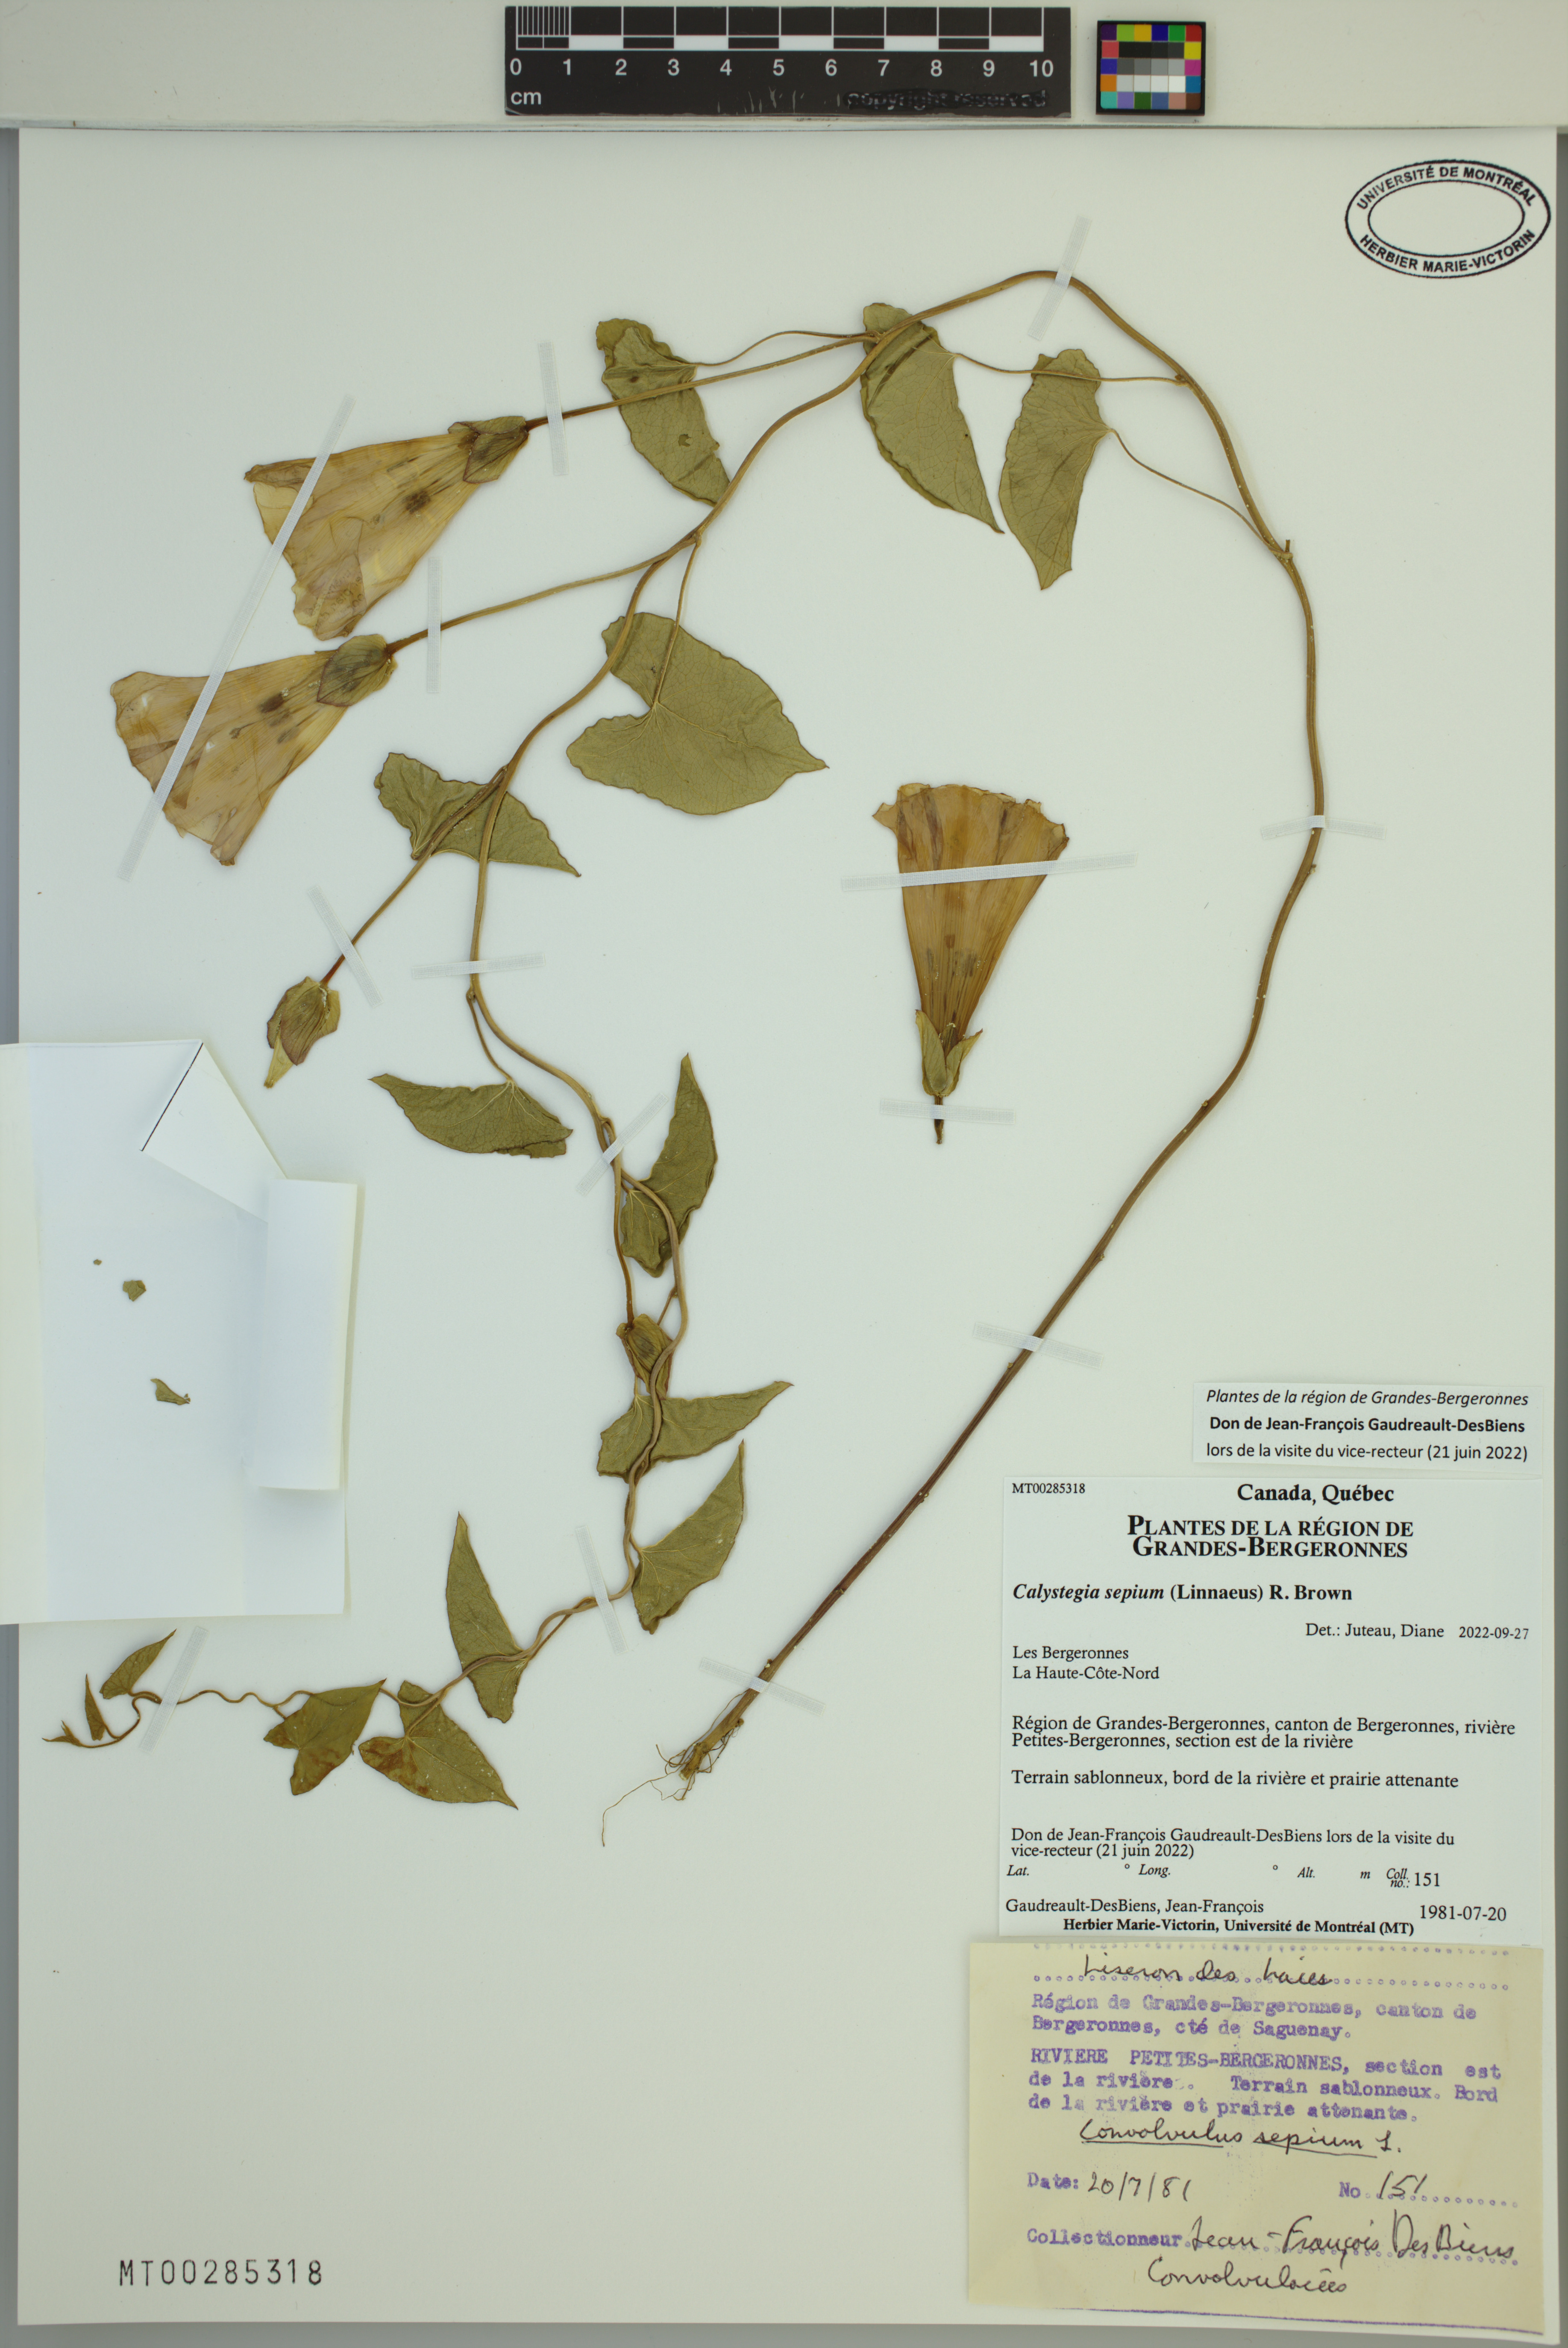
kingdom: Plantae
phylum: Tracheophyta
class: Magnoliopsida
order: Solanales
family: Convolvulaceae
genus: Calystegia
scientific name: Calystegia sepium
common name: Hedge bindweed
